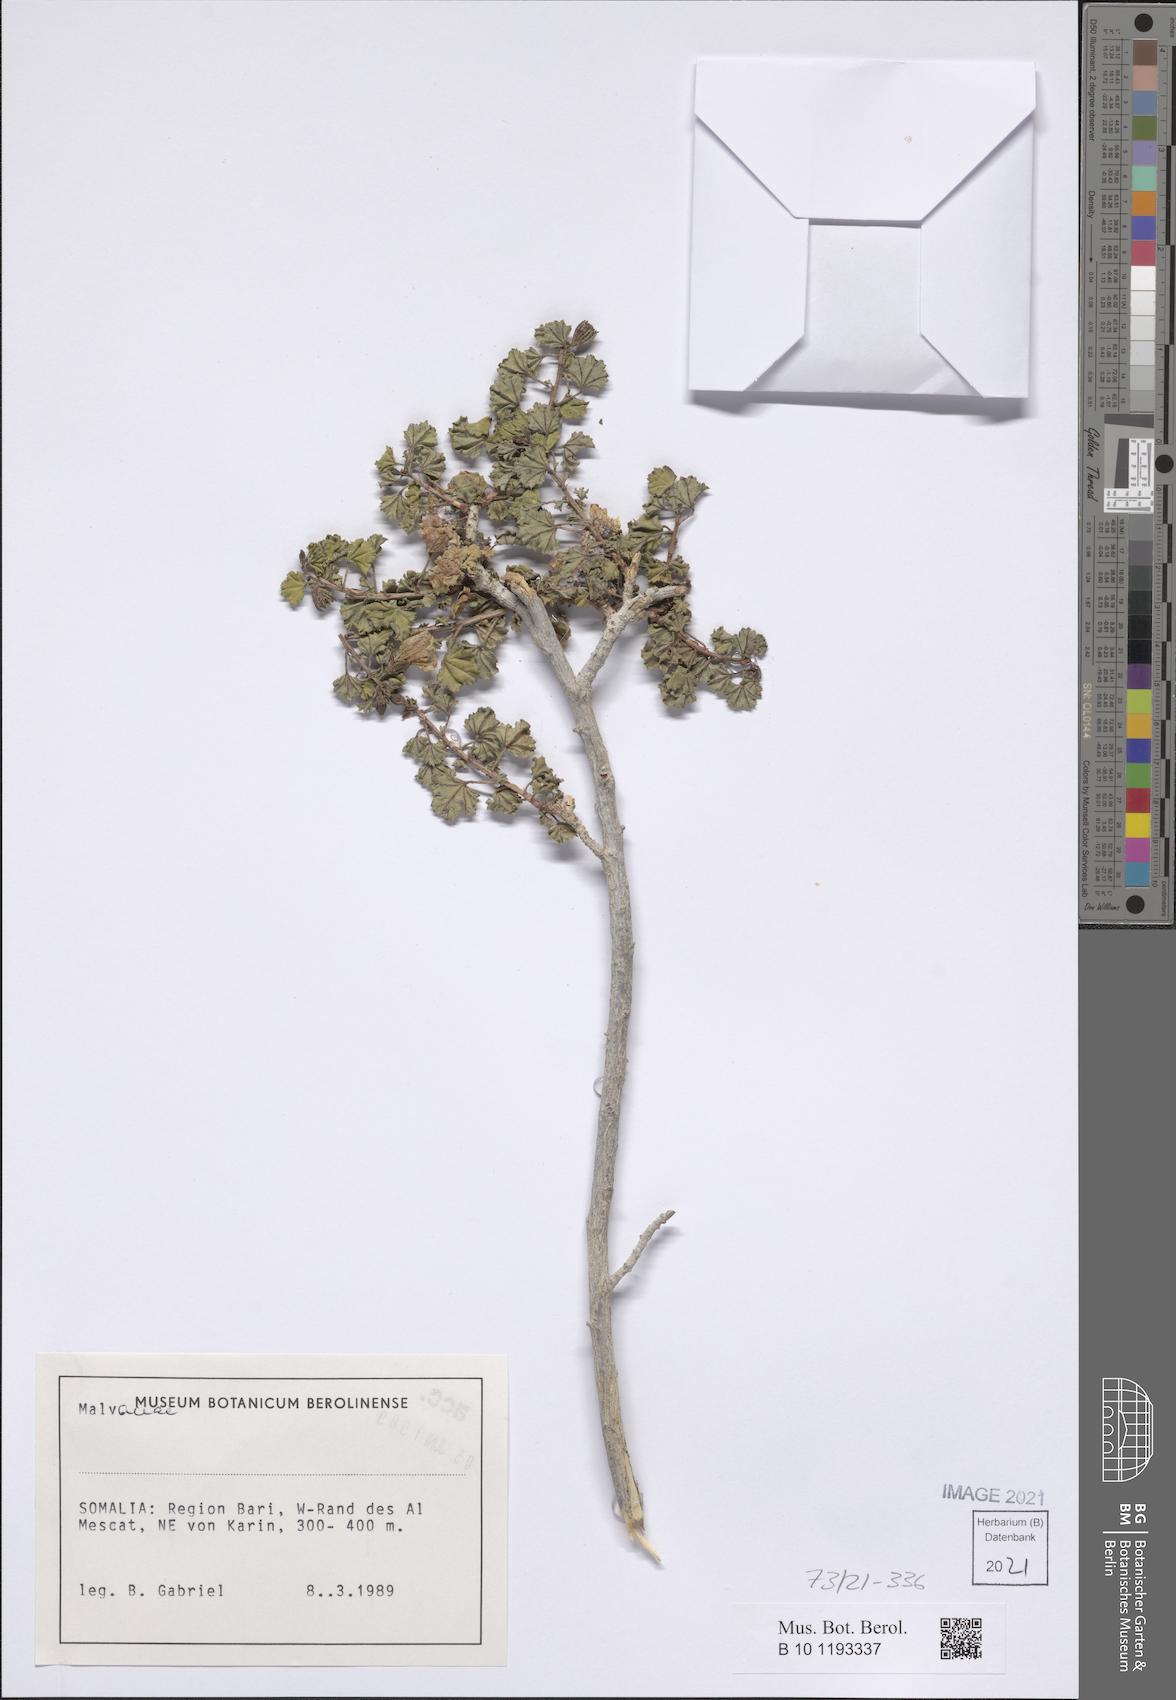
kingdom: Plantae
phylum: Tracheophyta
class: Magnoliopsida
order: Malvales
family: Malvaceae
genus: Cienfuegosia
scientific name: Cienfuegosia welshii
